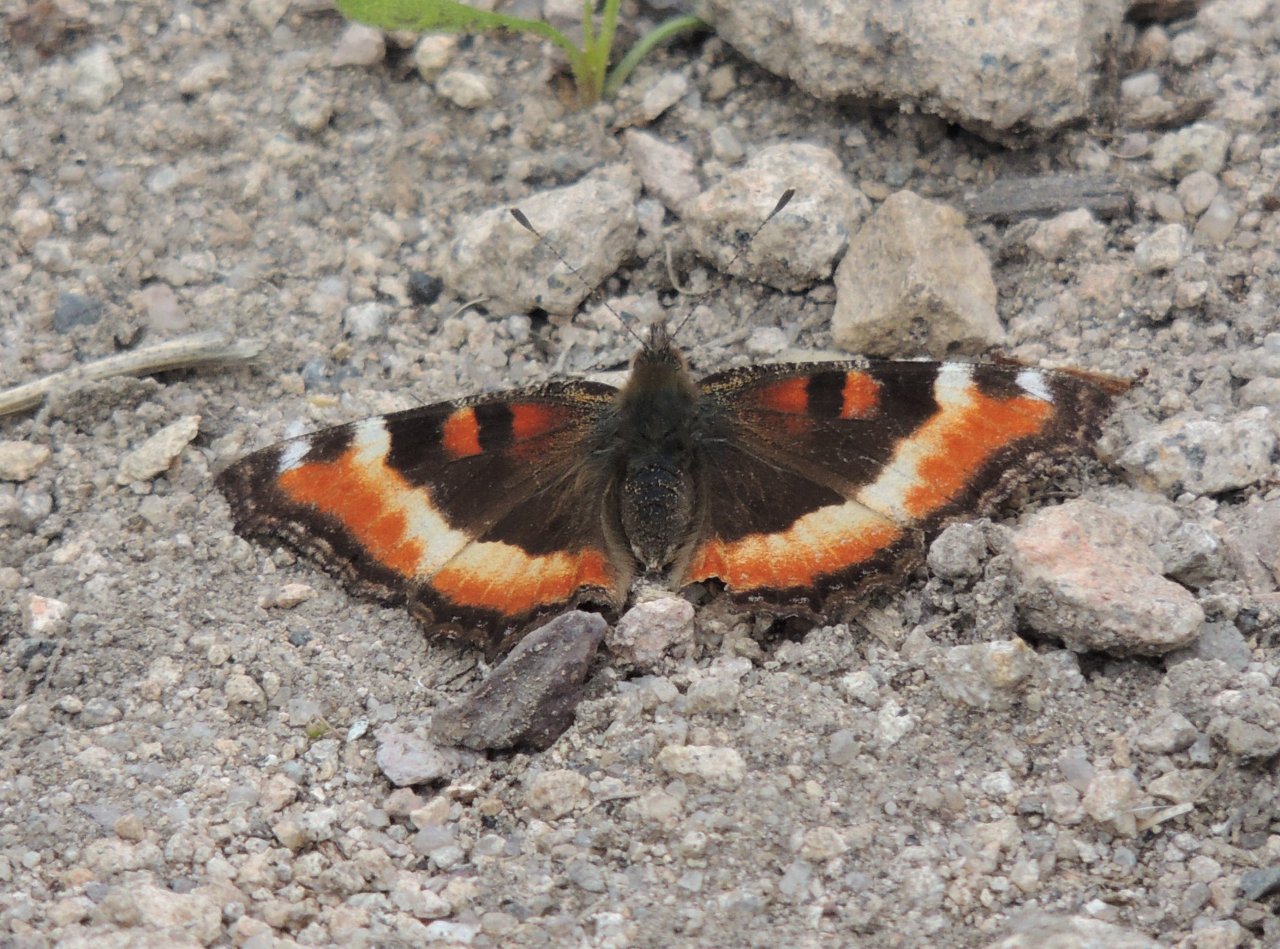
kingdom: Animalia
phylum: Arthropoda
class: Insecta
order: Lepidoptera
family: Nymphalidae
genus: Aglais
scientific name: Aglais milberti
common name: Milbert's Tortoiseshell
